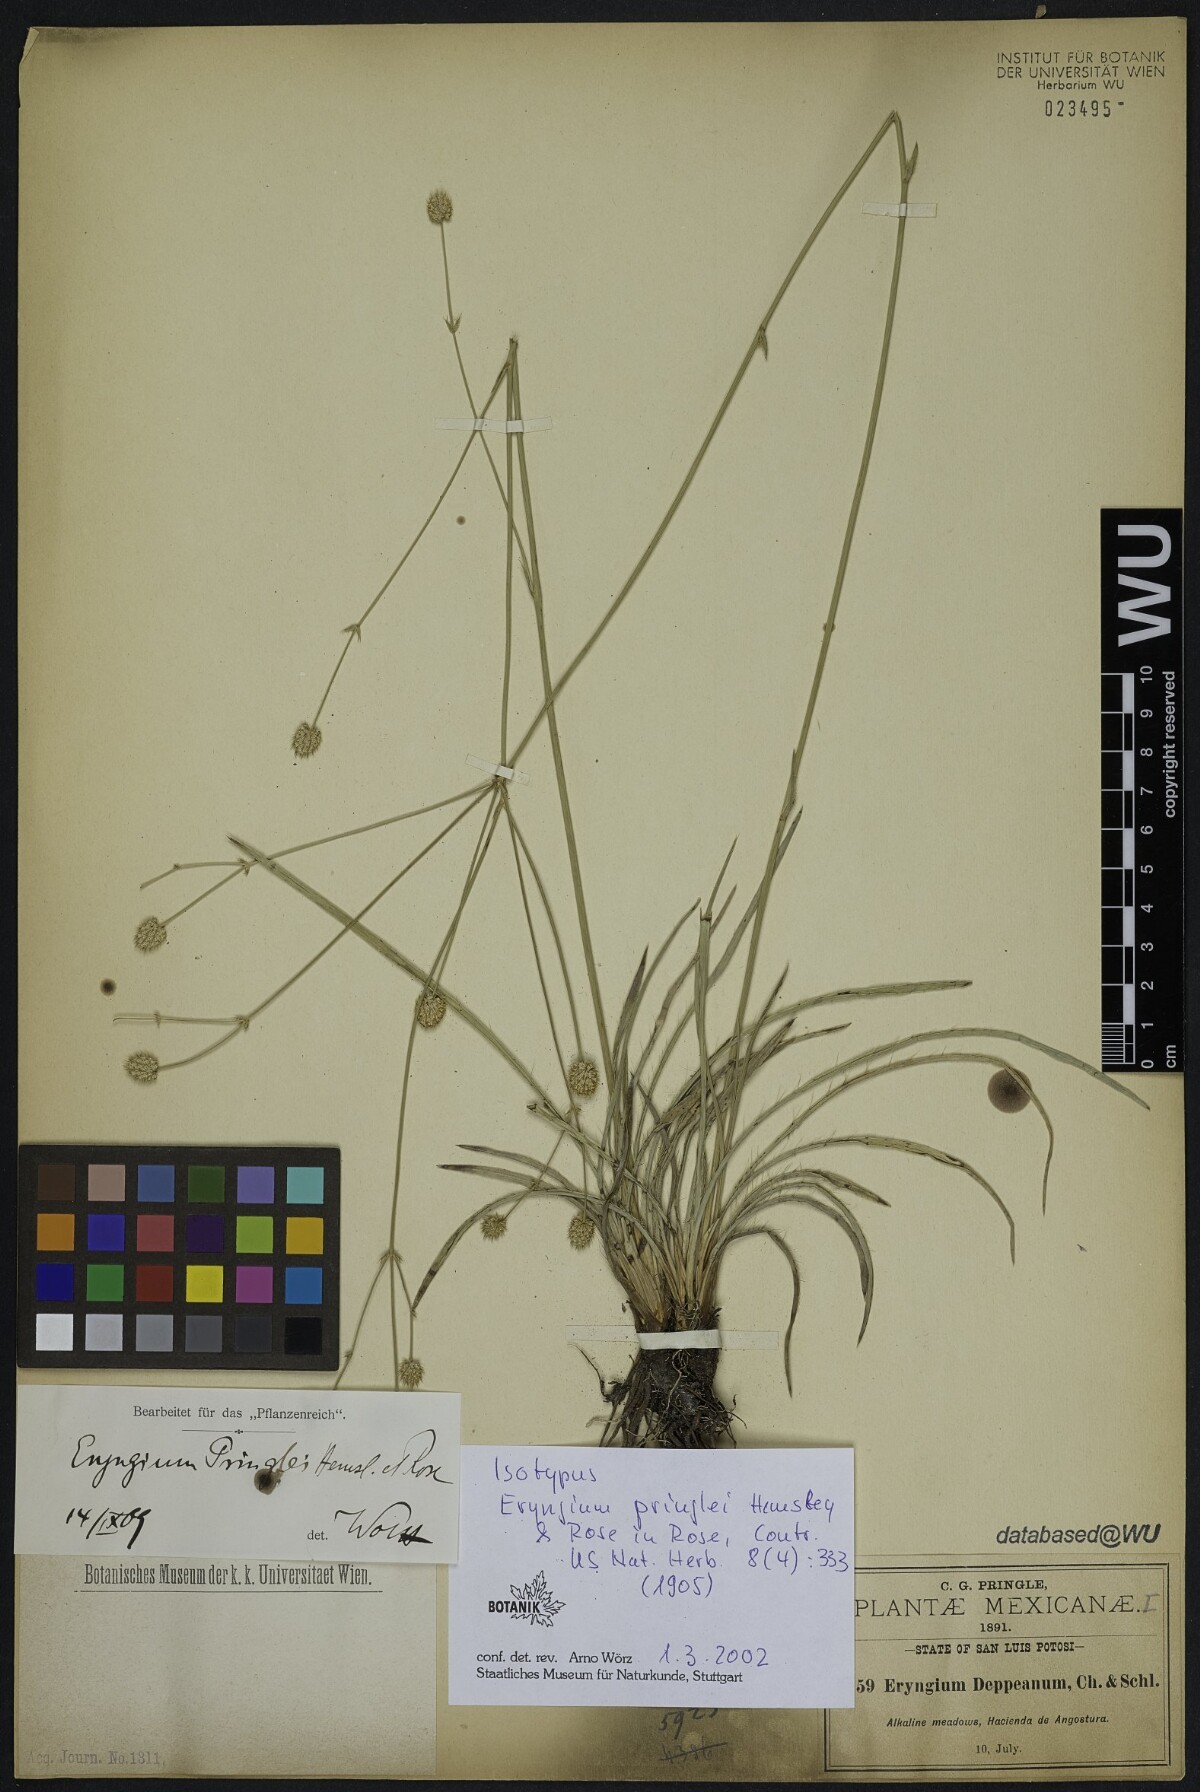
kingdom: Plantae
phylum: Tracheophyta
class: Magnoliopsida
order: Apiales
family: Apiaceae
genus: Eryngium
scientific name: Eryngium gramineum
